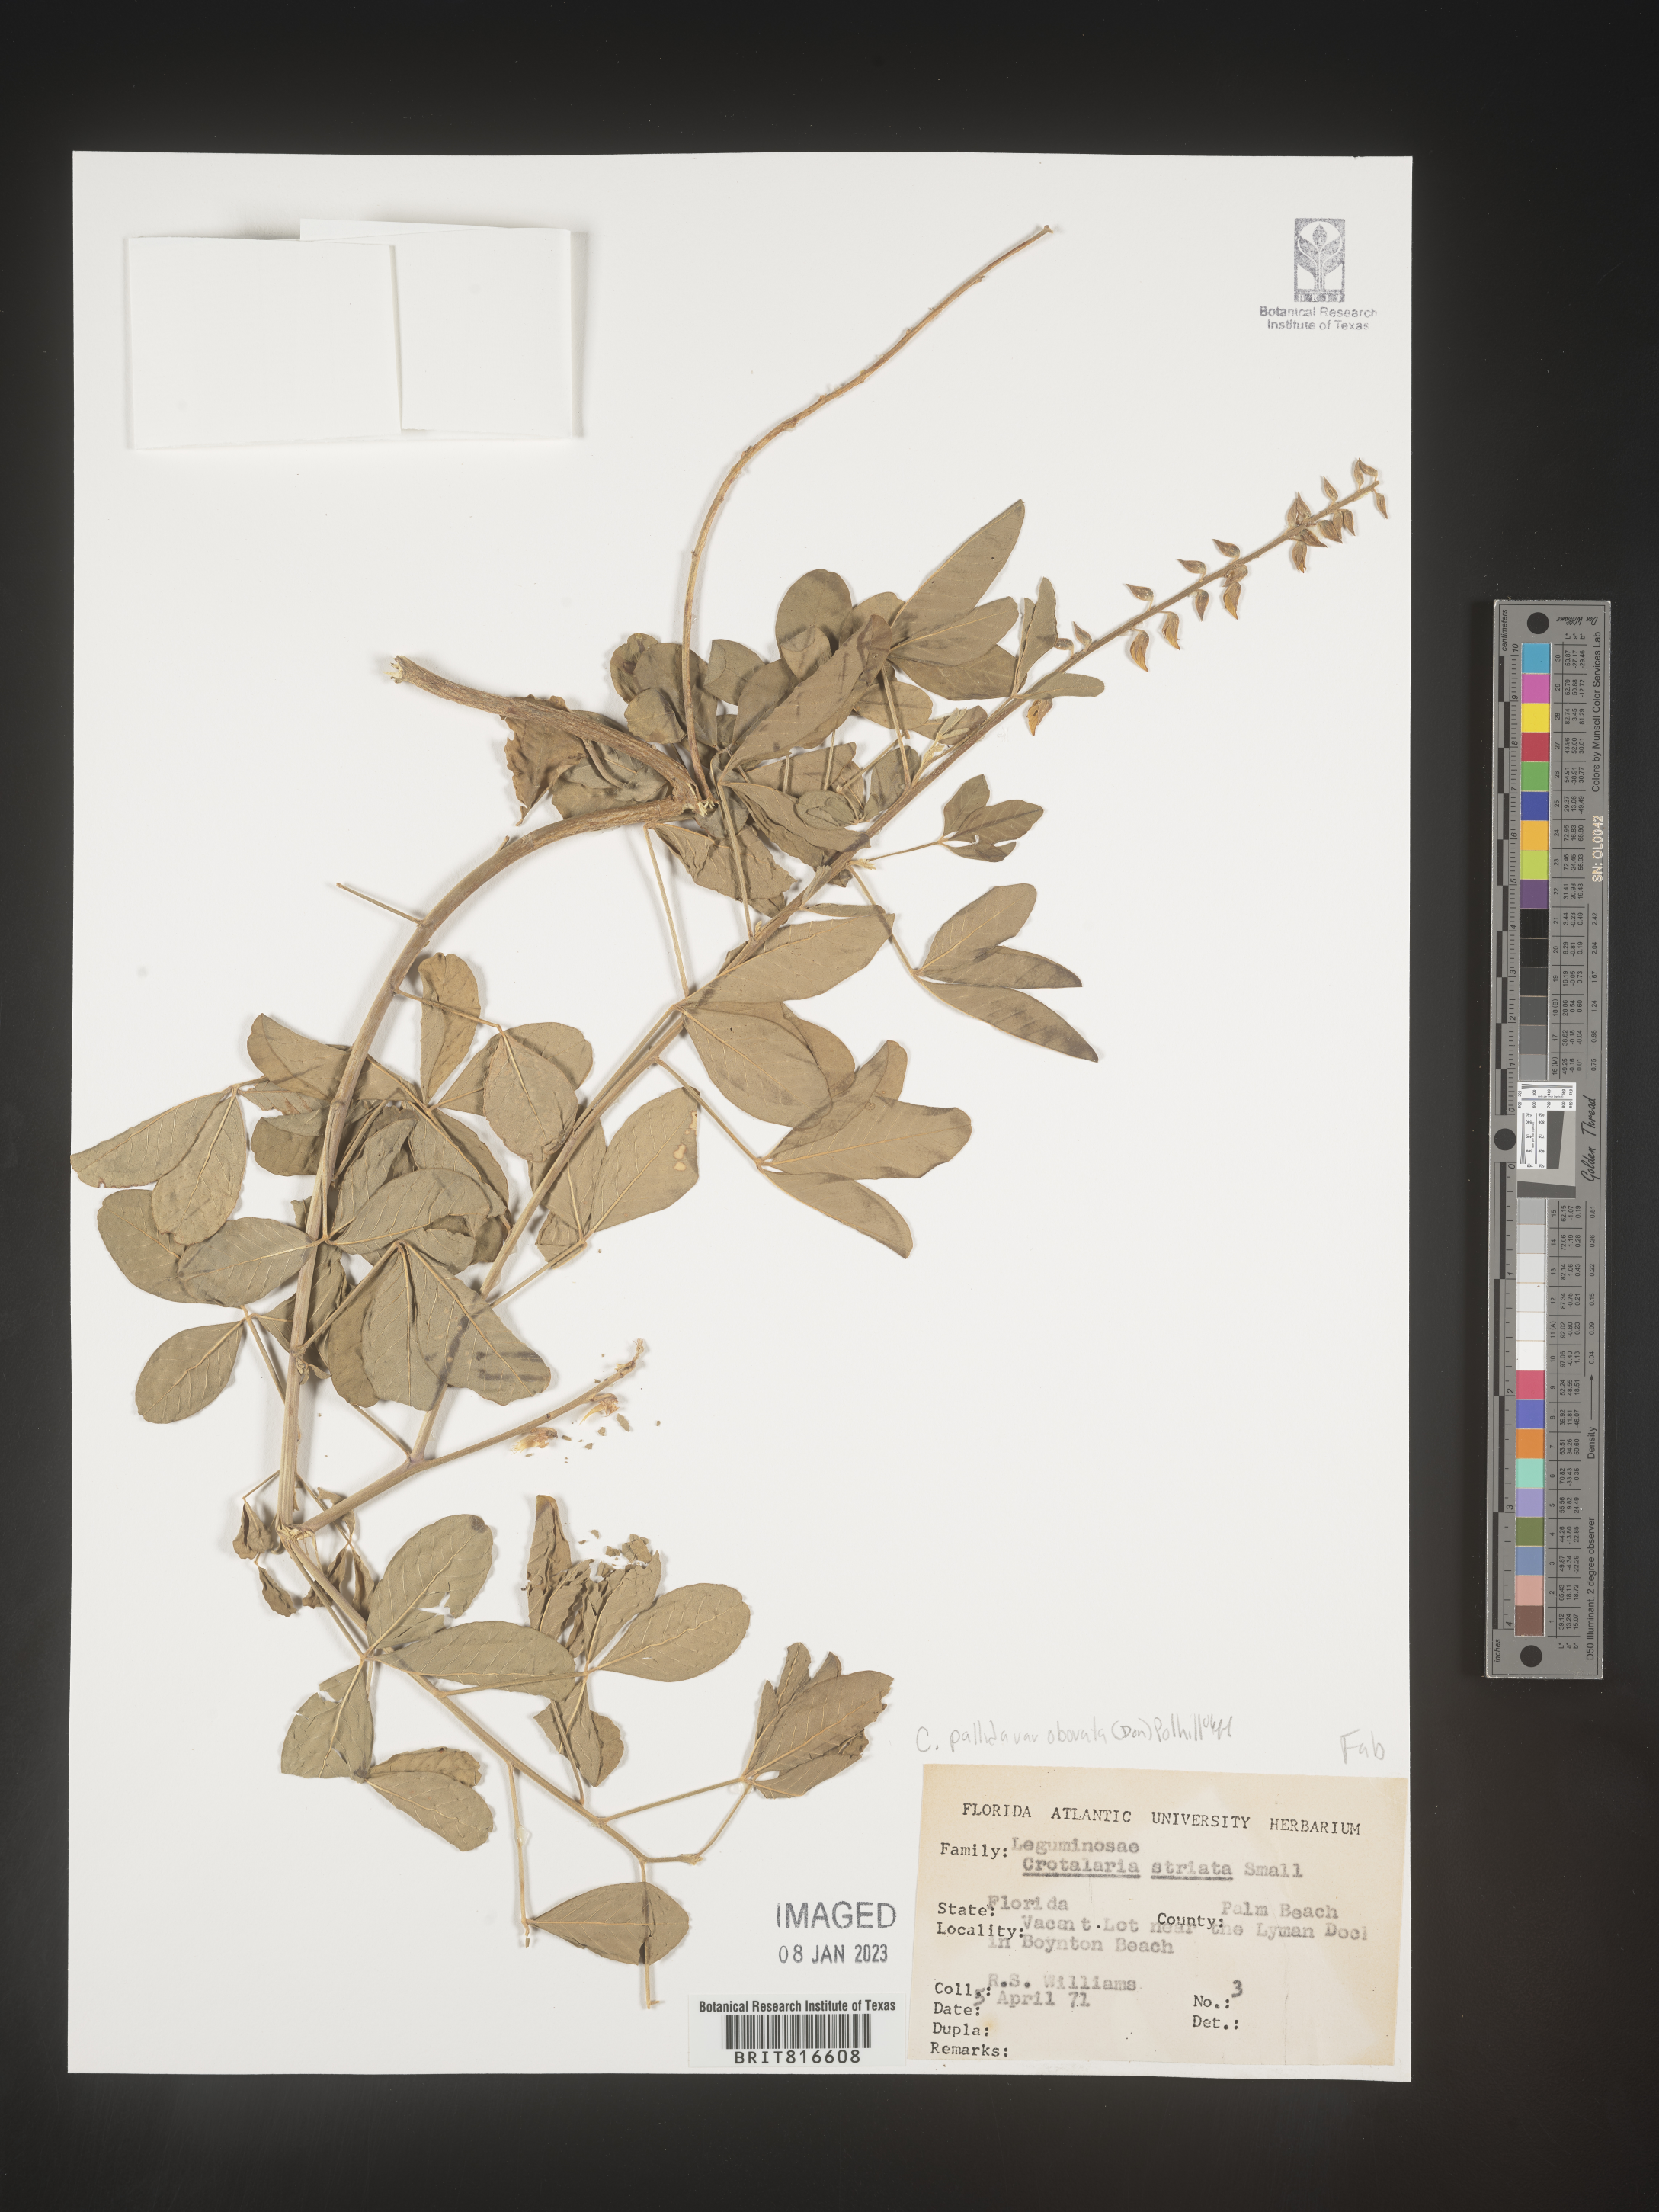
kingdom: Plantae
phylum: Tracheophyta
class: Magnoliopsida
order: Fabales
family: Fabaceae
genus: Crotalaria
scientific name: Crotalaria linifolia
